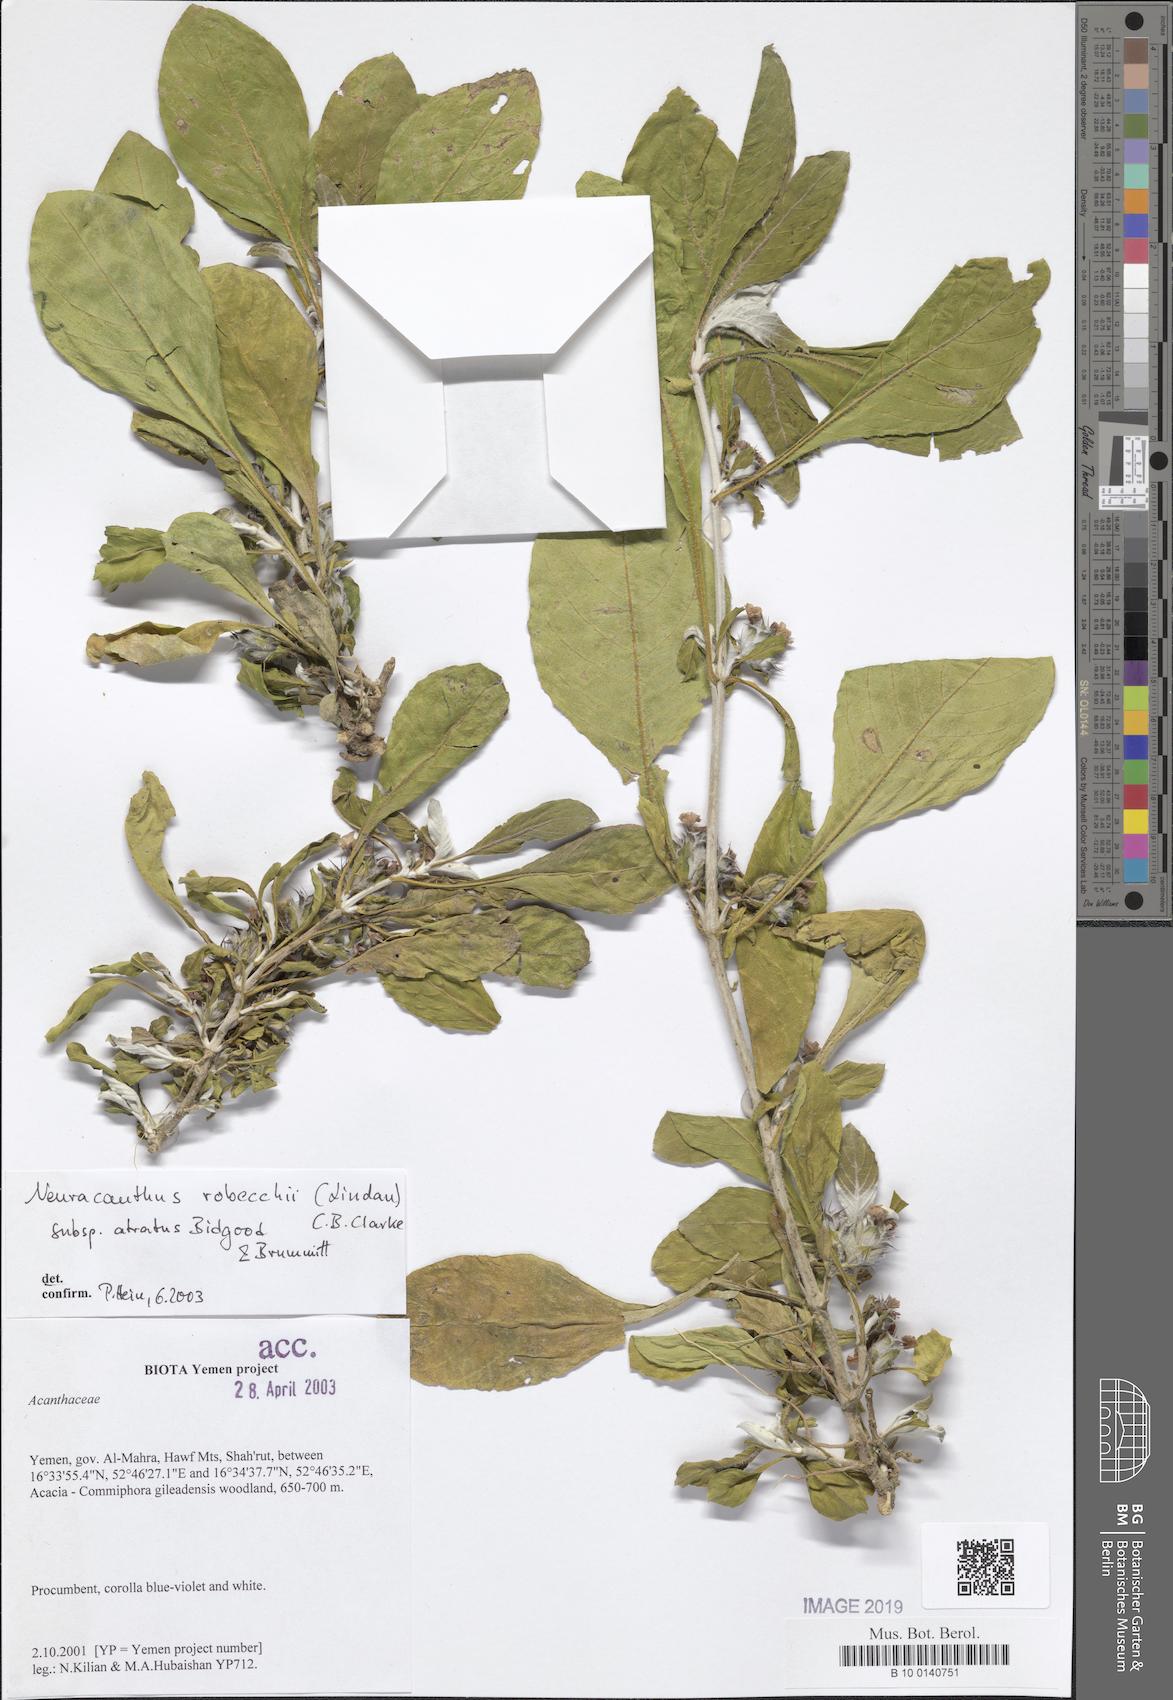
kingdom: Plantae
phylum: Tracheophyta
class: Magnoliopsida
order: Lamiales
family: Acanthaceae
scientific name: Acanthaceae
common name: Acanthaceae
